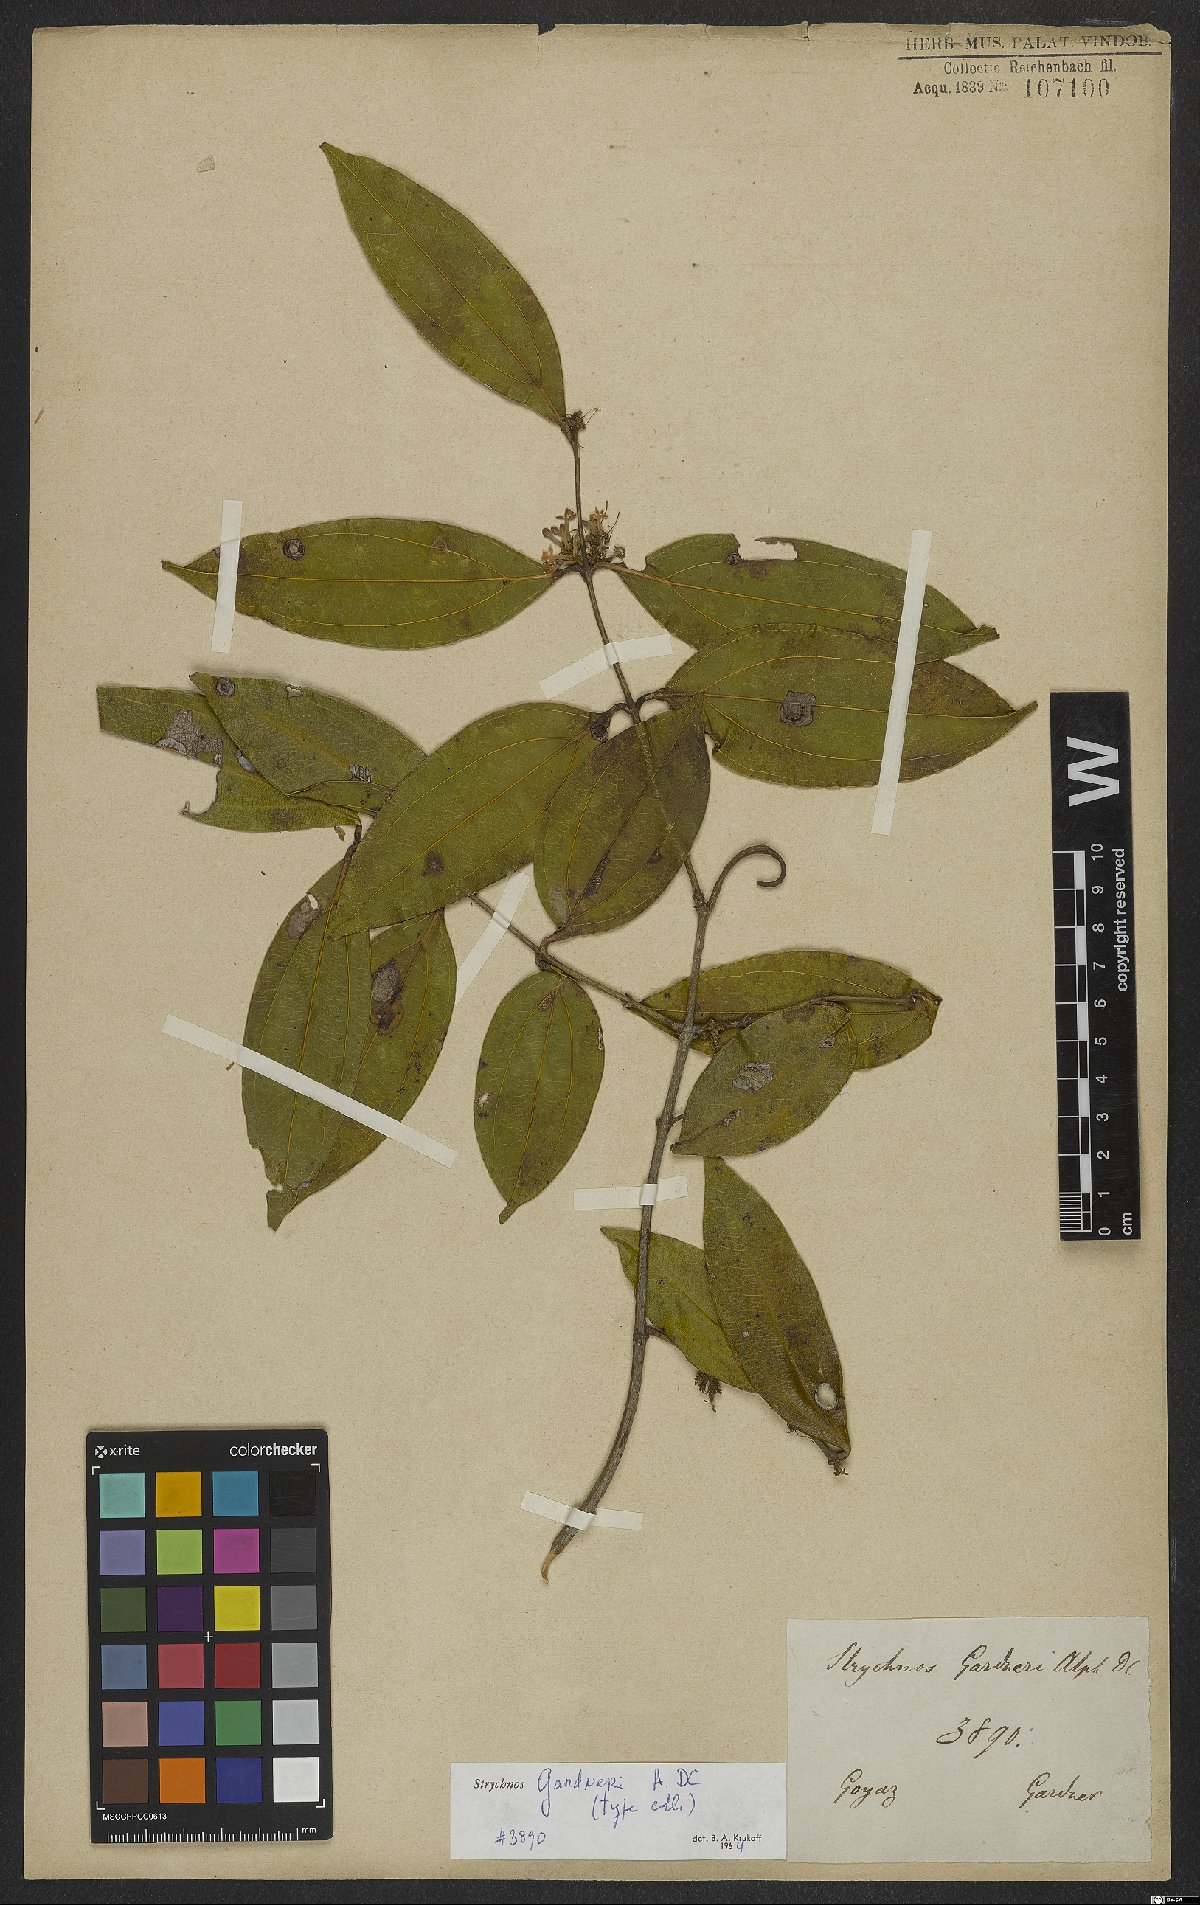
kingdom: Plantae
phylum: Tracheophyta
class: Magnoliopsida
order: Gentianales
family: Loganiaceae
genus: Strychnos
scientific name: Strychnos gardneri
